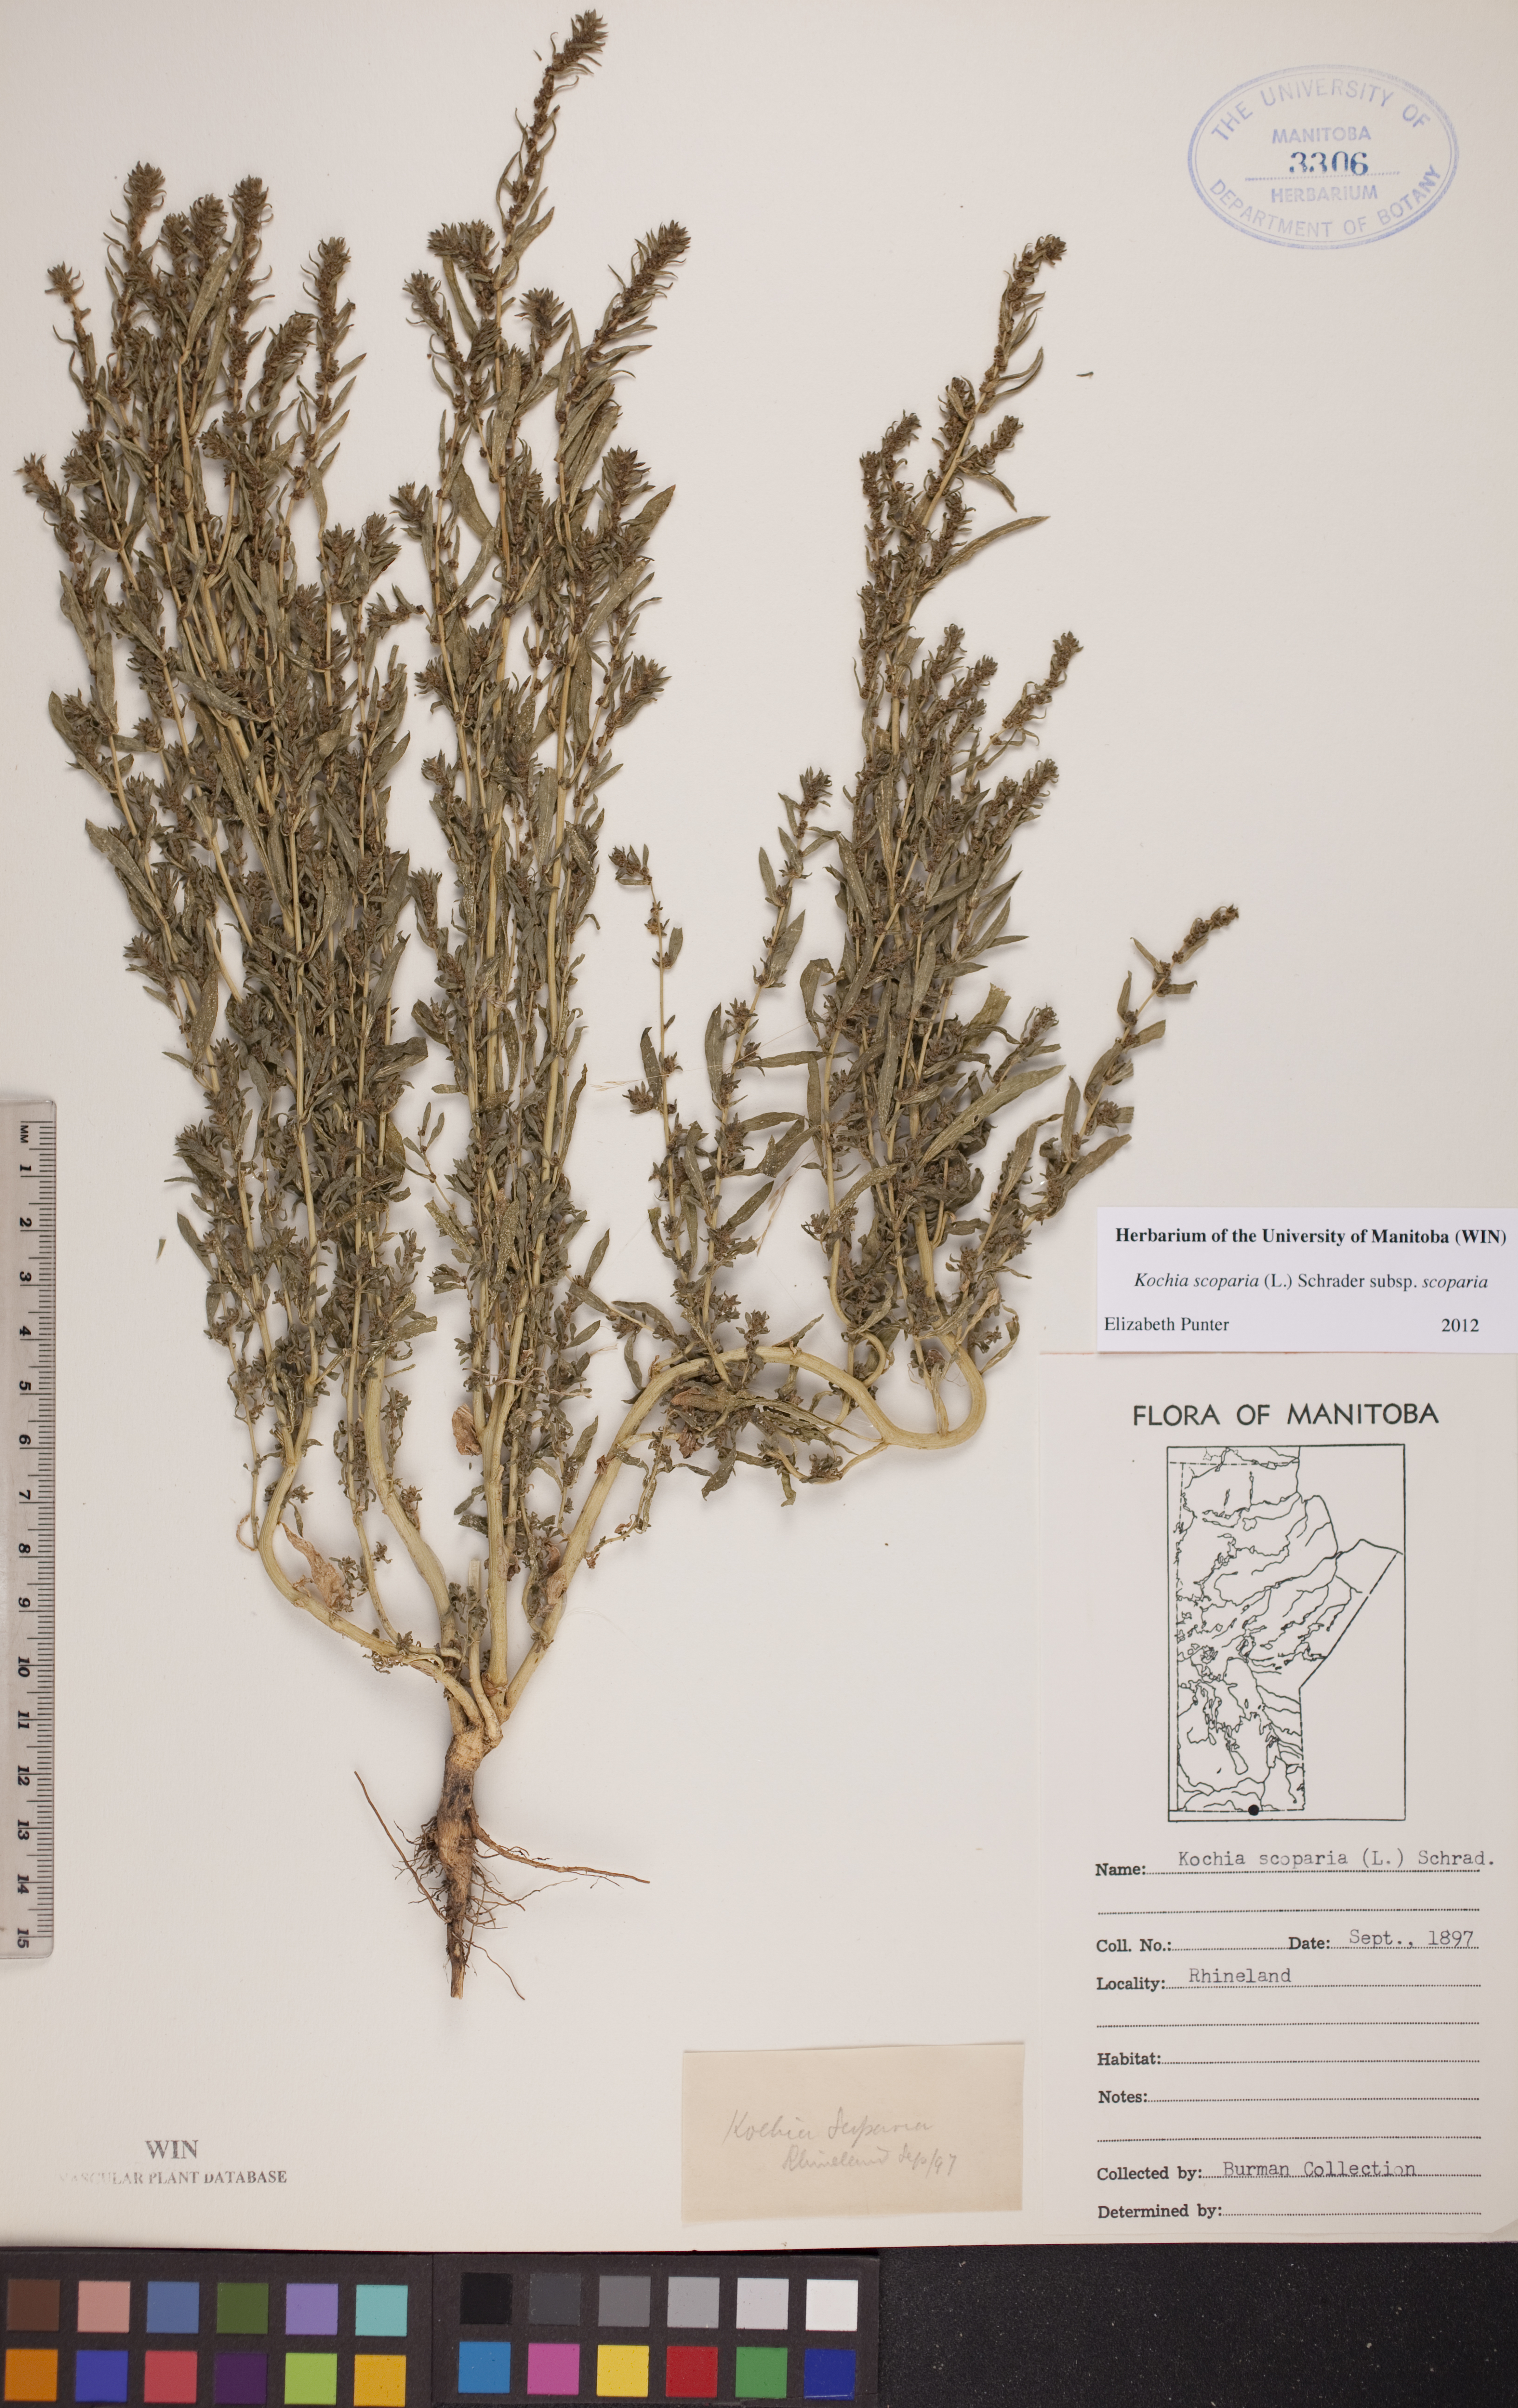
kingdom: Plantae
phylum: Tracheophyta
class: Magnoliopsida
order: Caryophyllales
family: Amaranthaceae
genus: Bassia
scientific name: Bassia scoparia
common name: Belvedere
